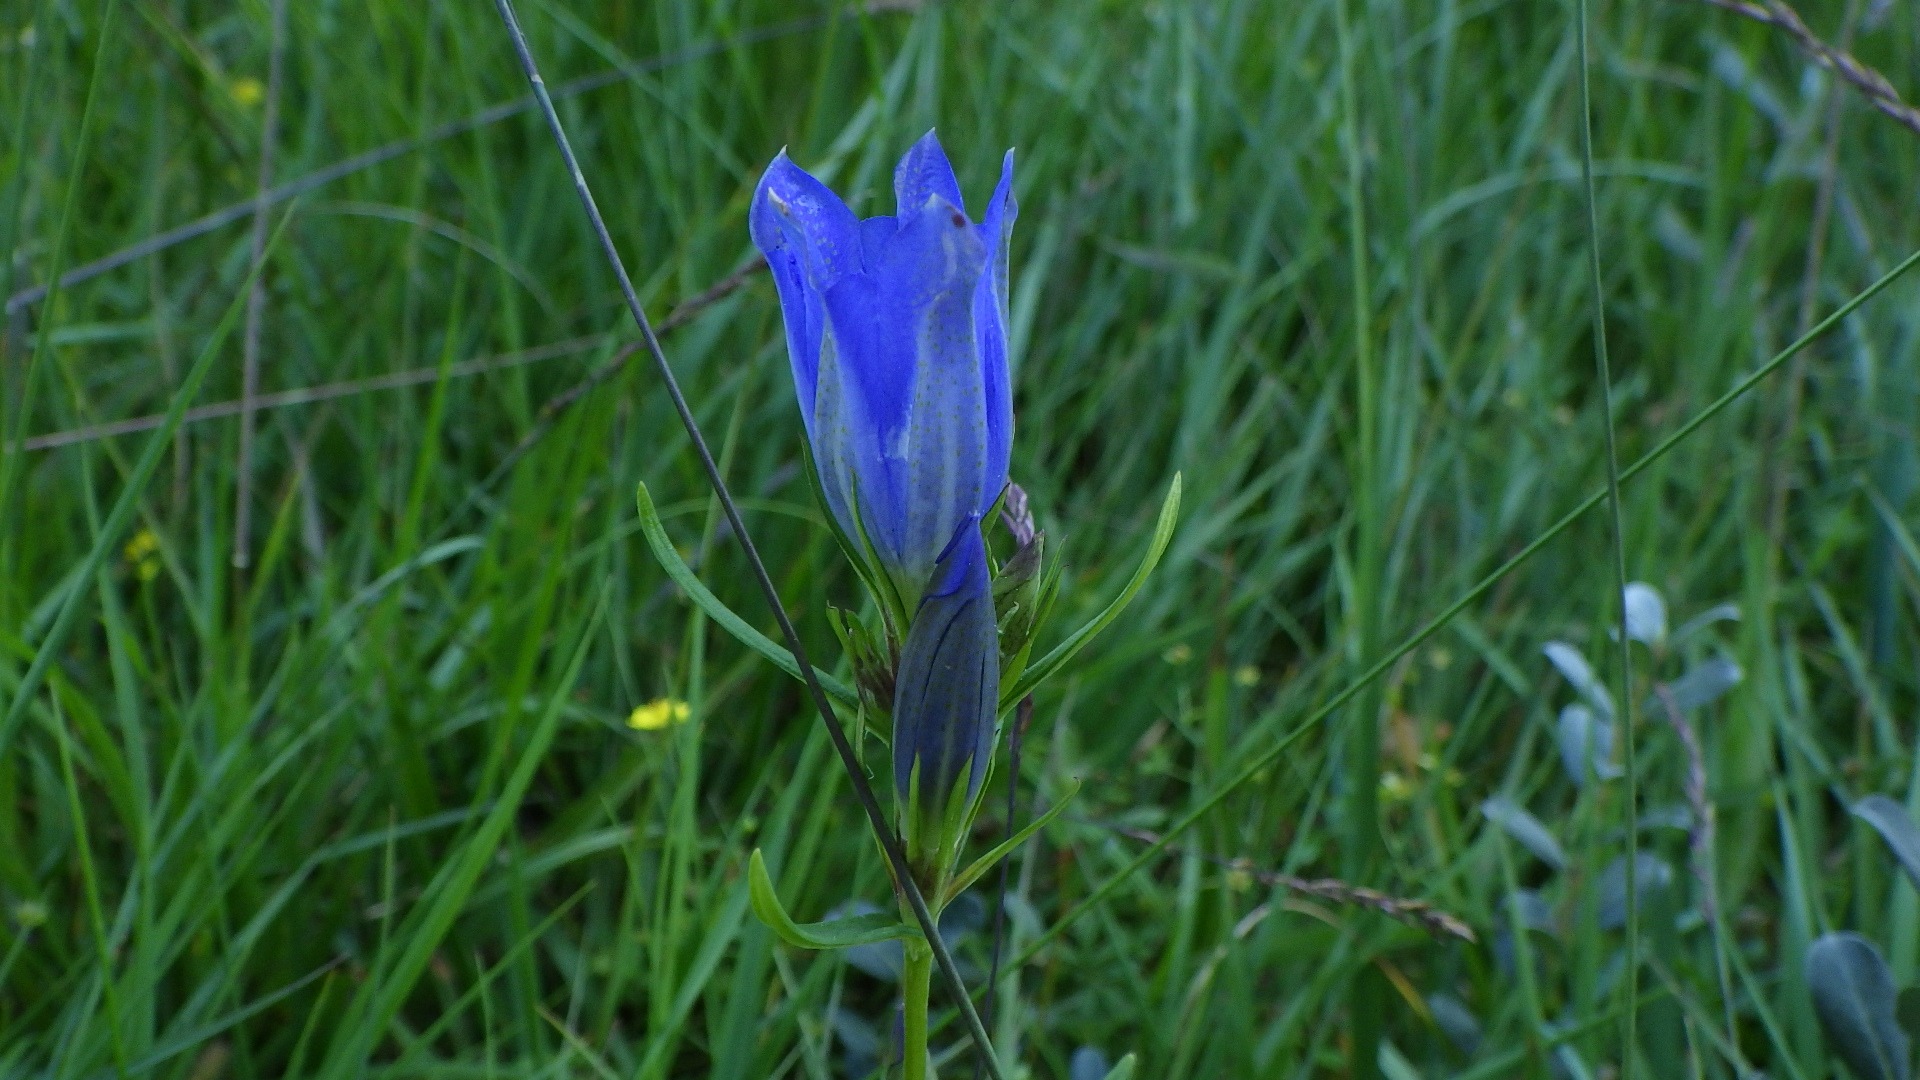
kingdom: Plantae
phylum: Tracheophyta
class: Magnoliopsida
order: Gentianales
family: Gentianaceae
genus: Gentiana
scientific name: Gentiana pneumonanthe
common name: Klokke-ensian
